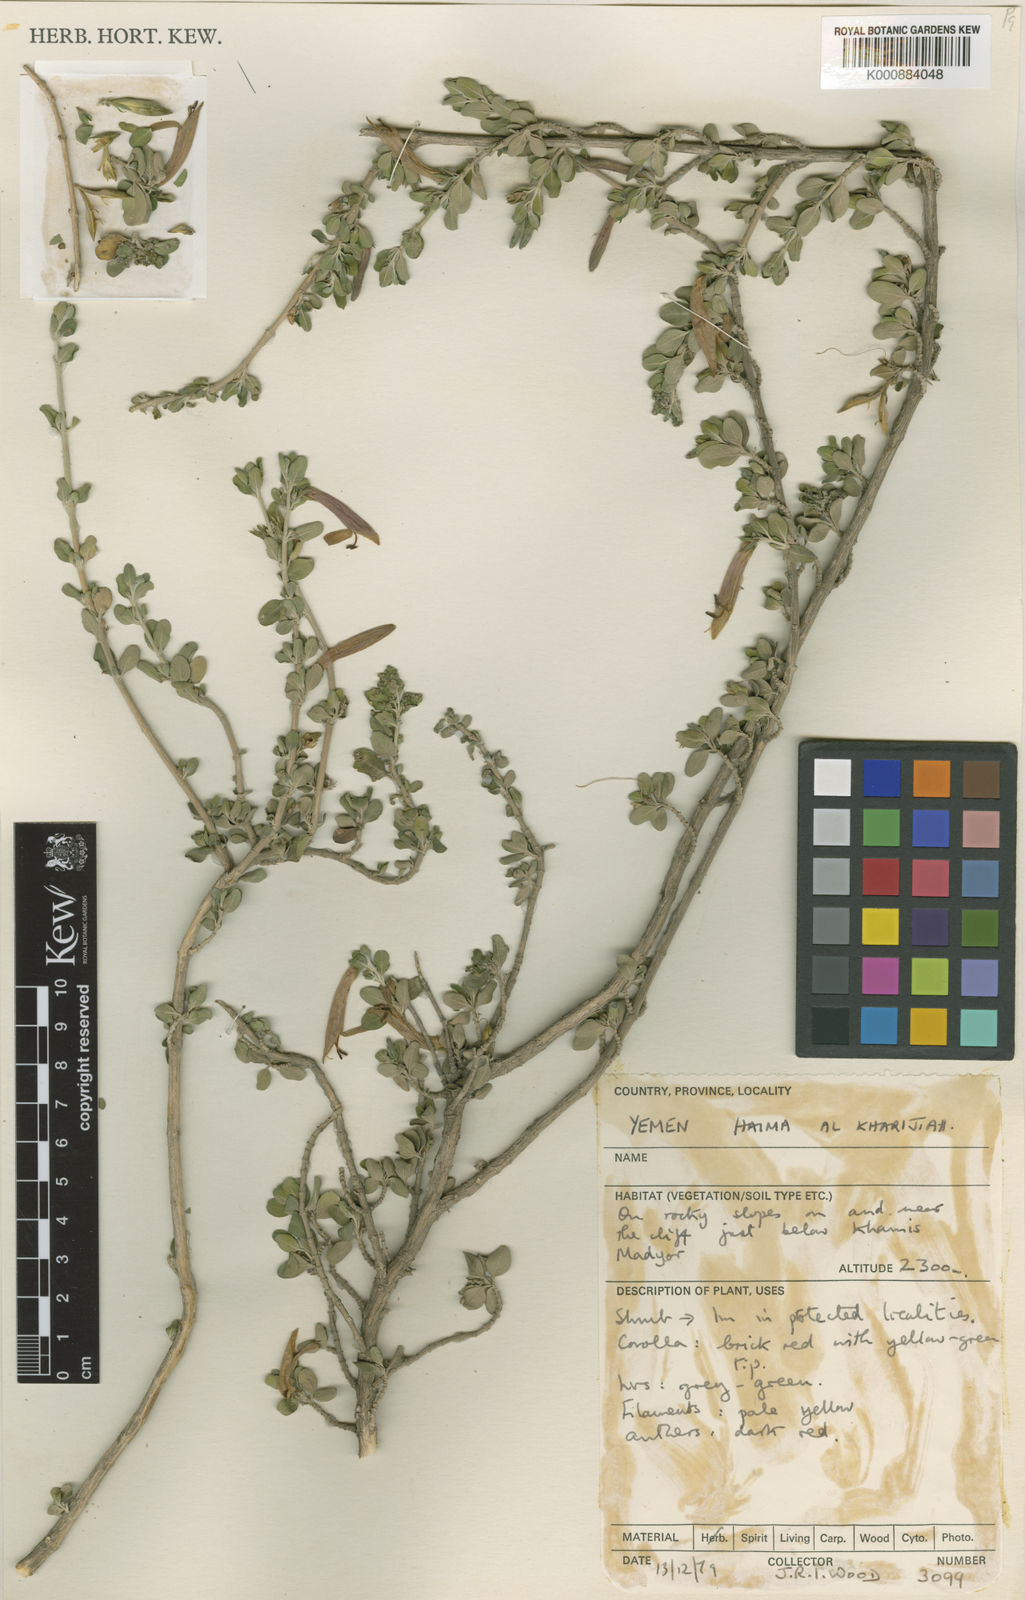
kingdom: Plantae
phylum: Tracheophyta
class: Magnoliopsida
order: Lamiales
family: Acanthaceae
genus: Justicia
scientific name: Justicia anisotoides
